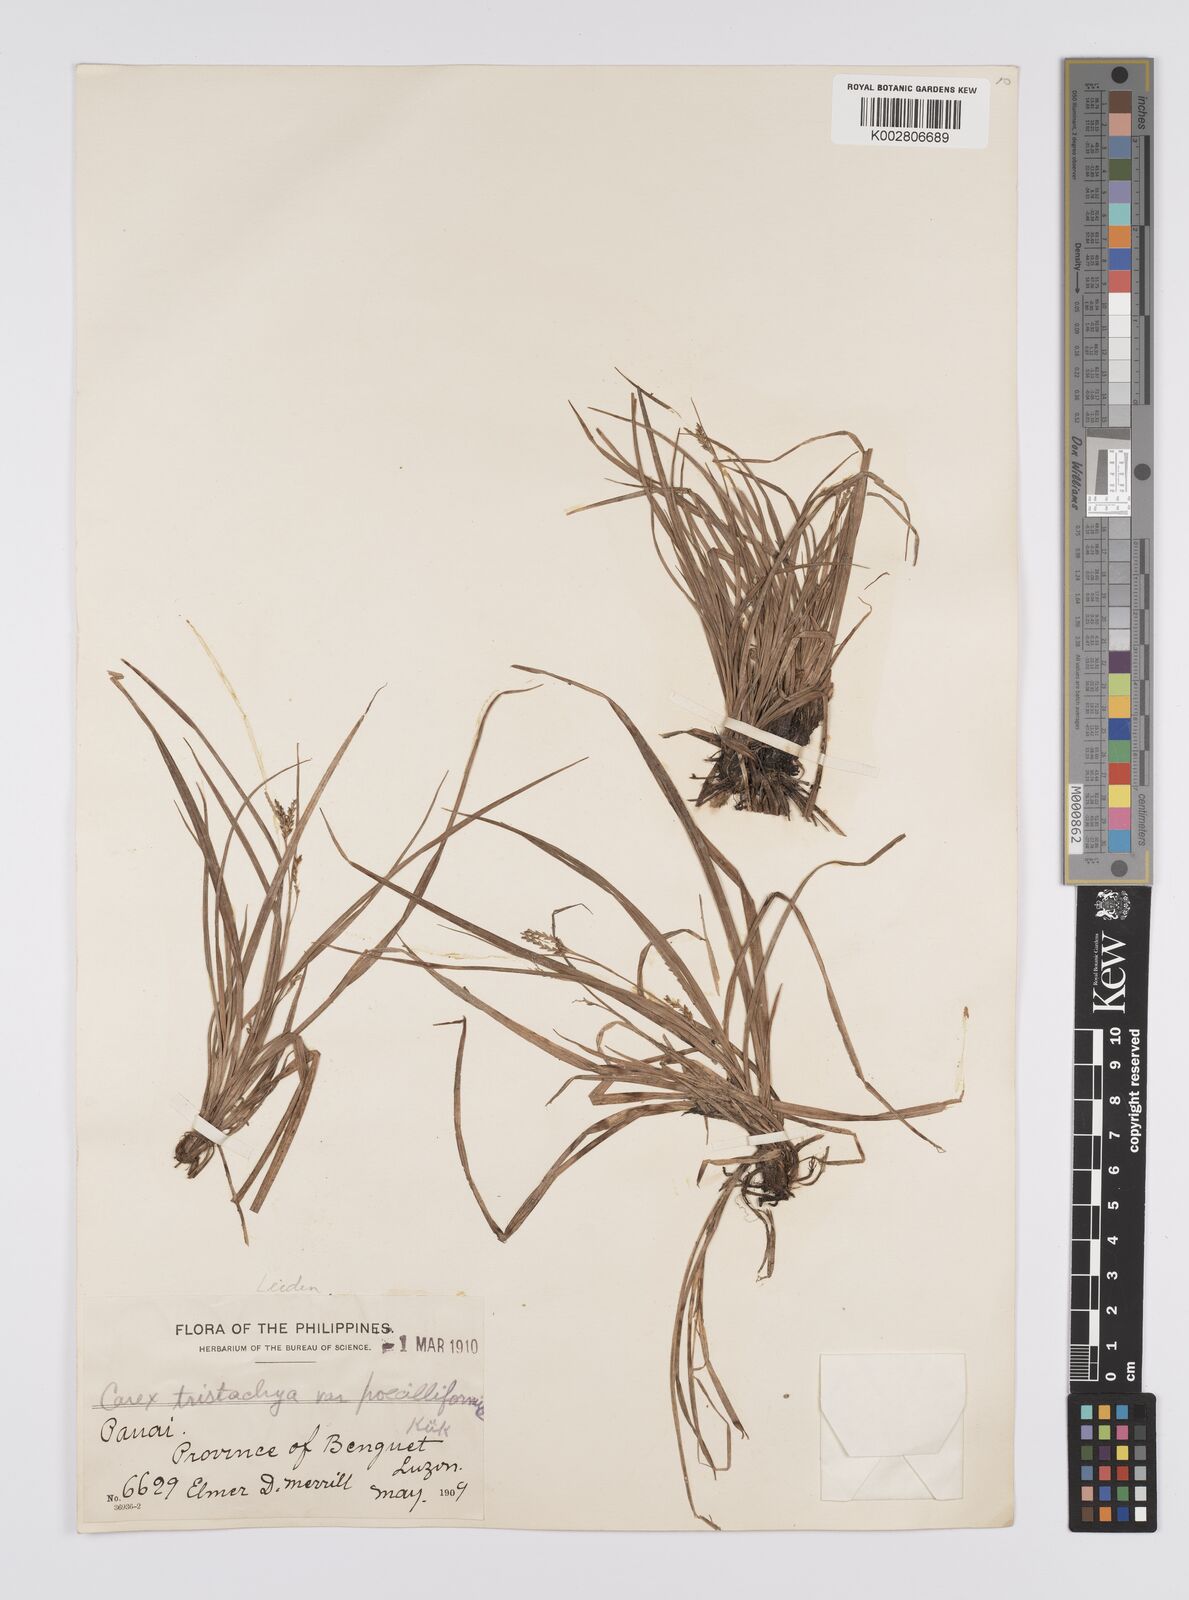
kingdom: Plantae
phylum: Tracheophyta
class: Liliopsida
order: Poales
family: Cyperaceae
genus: Carex
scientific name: Carex tristachya
